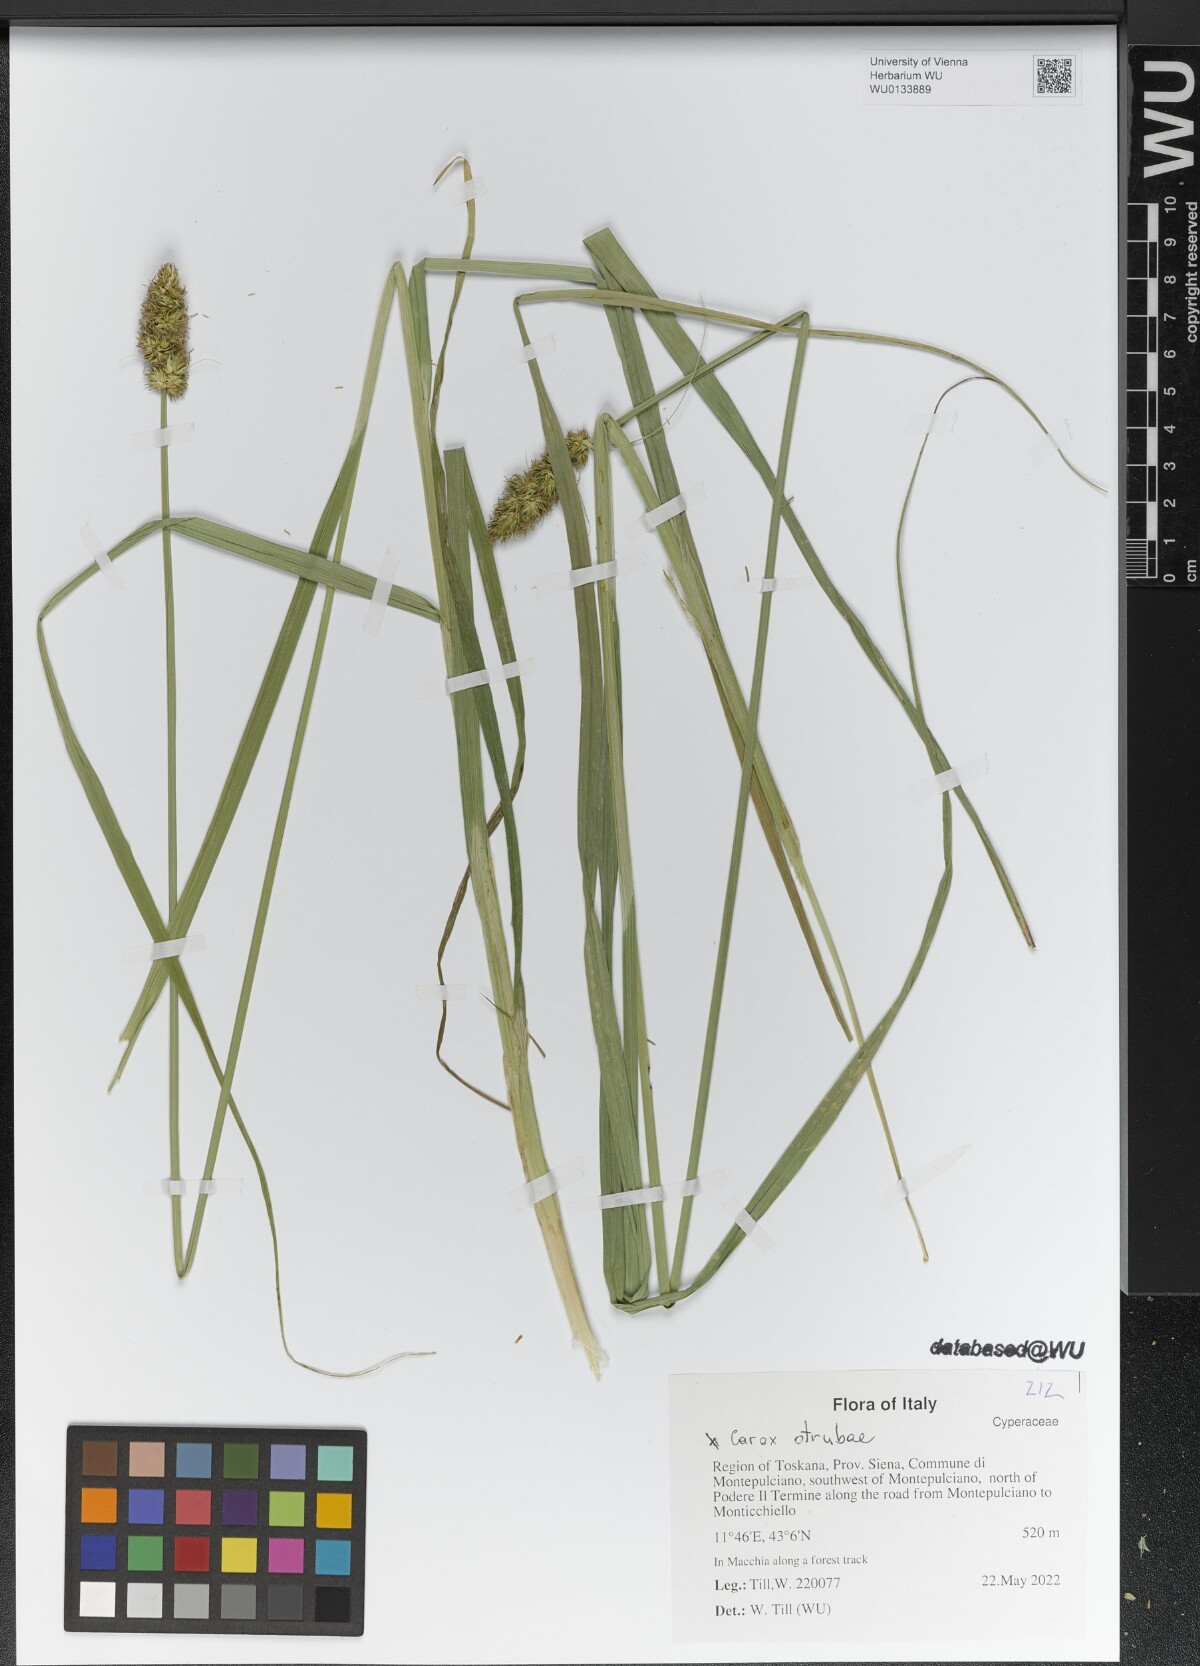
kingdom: Plantae
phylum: Tracheophyta
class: Liliopsida
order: Poales
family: Cyperaceae
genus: Carex
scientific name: Carex otrubae
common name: False fox-sedge
